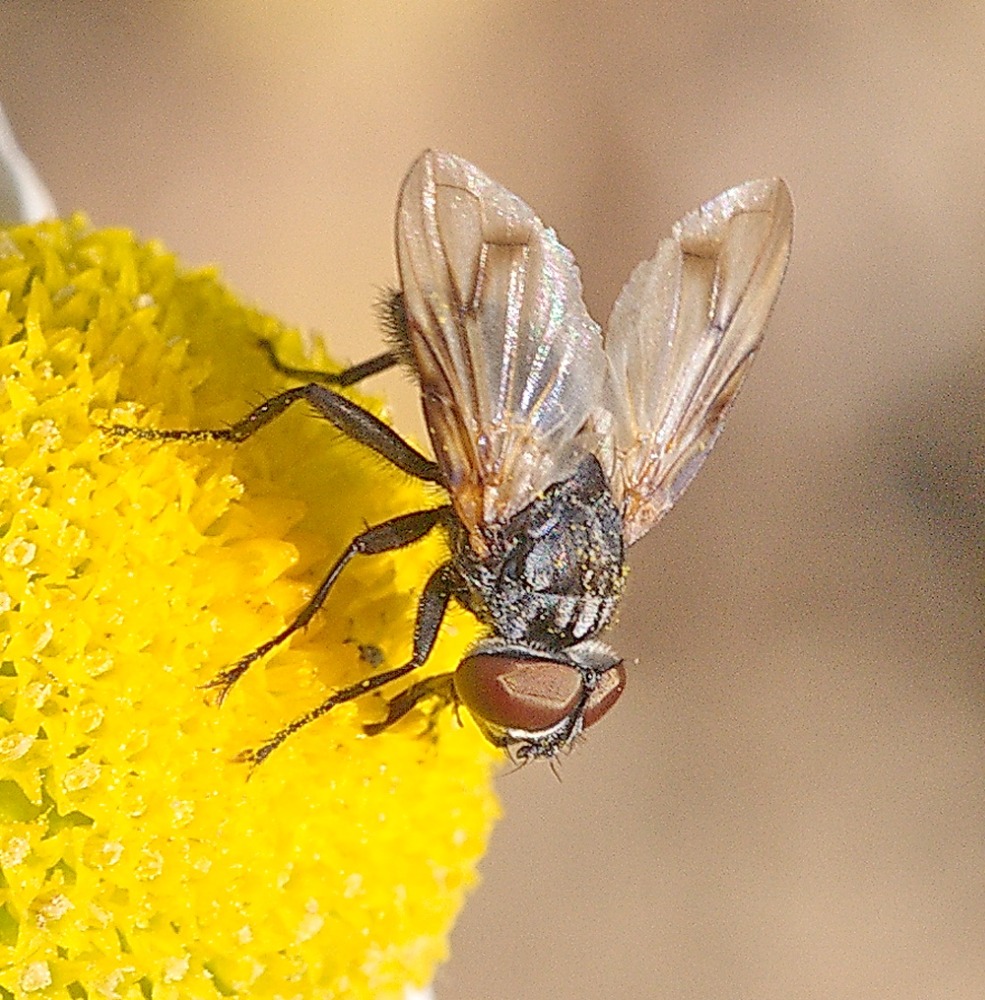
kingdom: Animalia
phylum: Arthropoda
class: Insecta
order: Diptera
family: Tachinidae
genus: Phasia
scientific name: Phasia obesa
